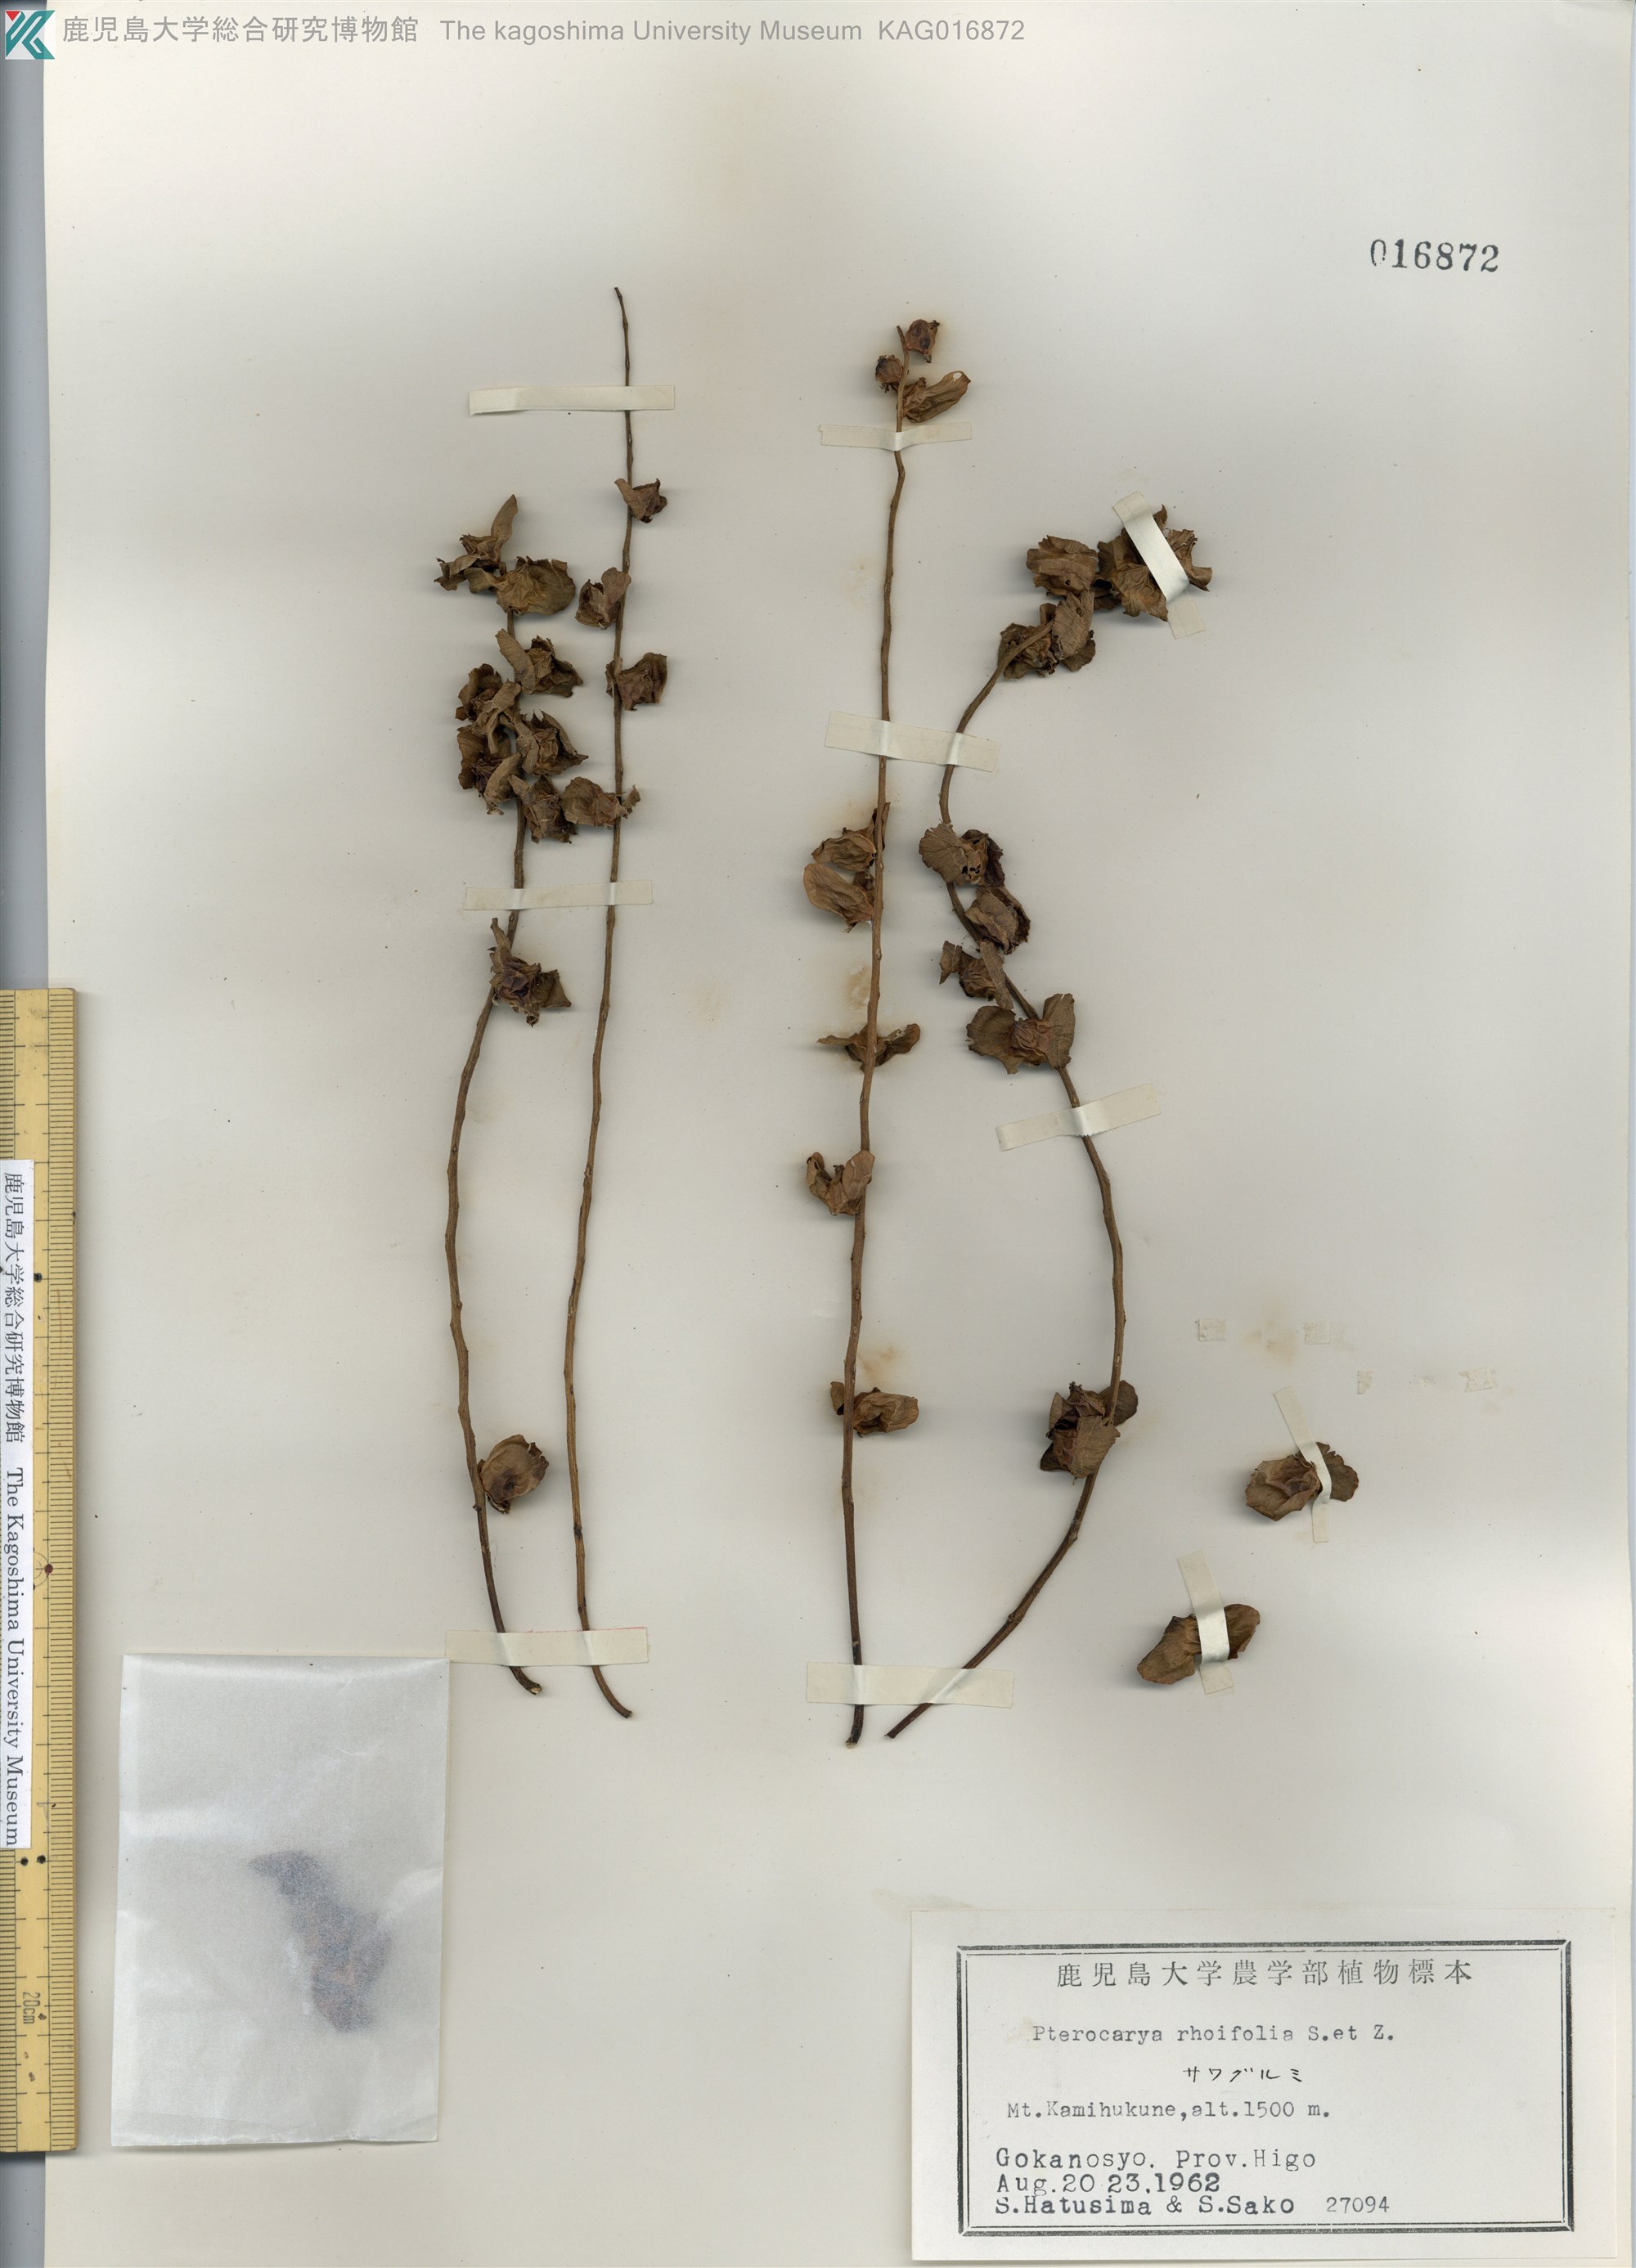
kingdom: Plantae
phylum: Tracheophyta
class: Magnoliopsida
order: Fagales
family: Juglandaceae
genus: Pterocarya
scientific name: Pterocarya rhoifolia
